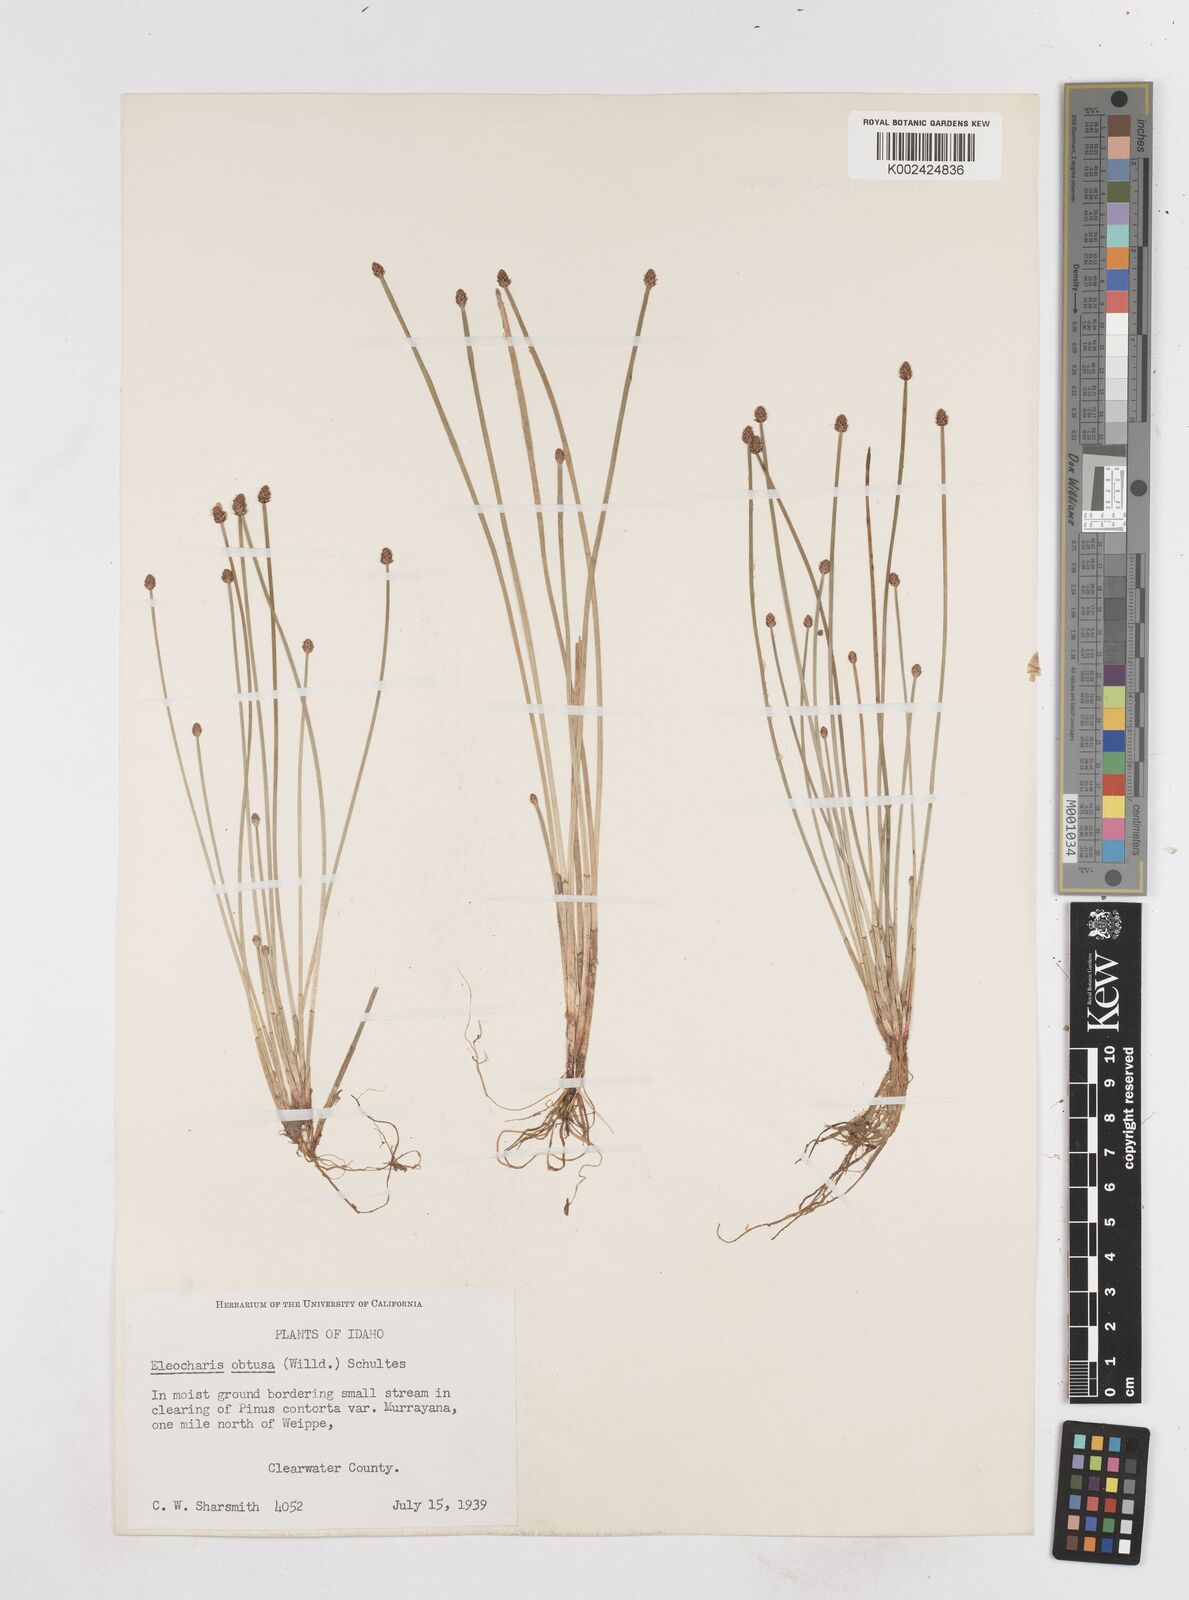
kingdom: Plantae
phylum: Tracheophyta
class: Liliopsida
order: Poales
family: Cyperaceae
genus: Eleocharis
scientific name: Eleocharis obtusa
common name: Blunt spikerush
